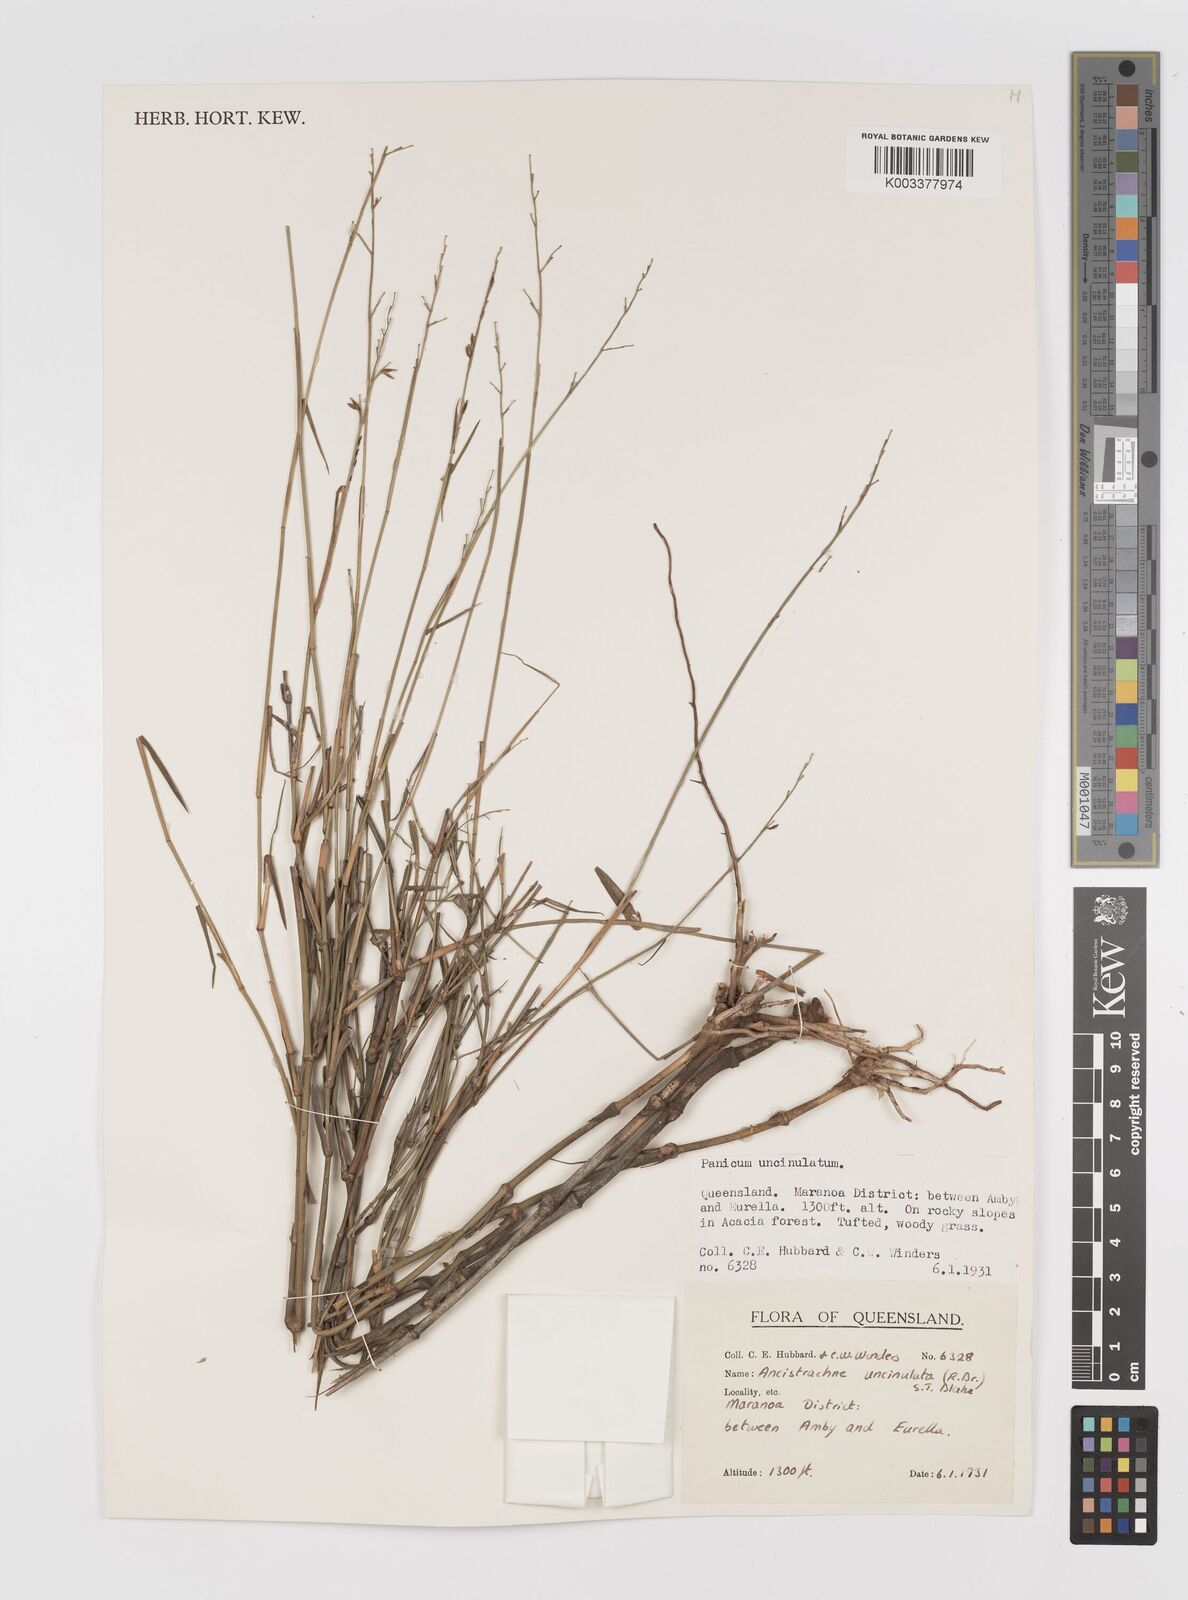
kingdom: Plantae
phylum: Tracheophyta
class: Liliopsida
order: Poales
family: Poaceae
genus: Ancistrachne
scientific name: Ancistrachne uncinulata
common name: Hooky grass
